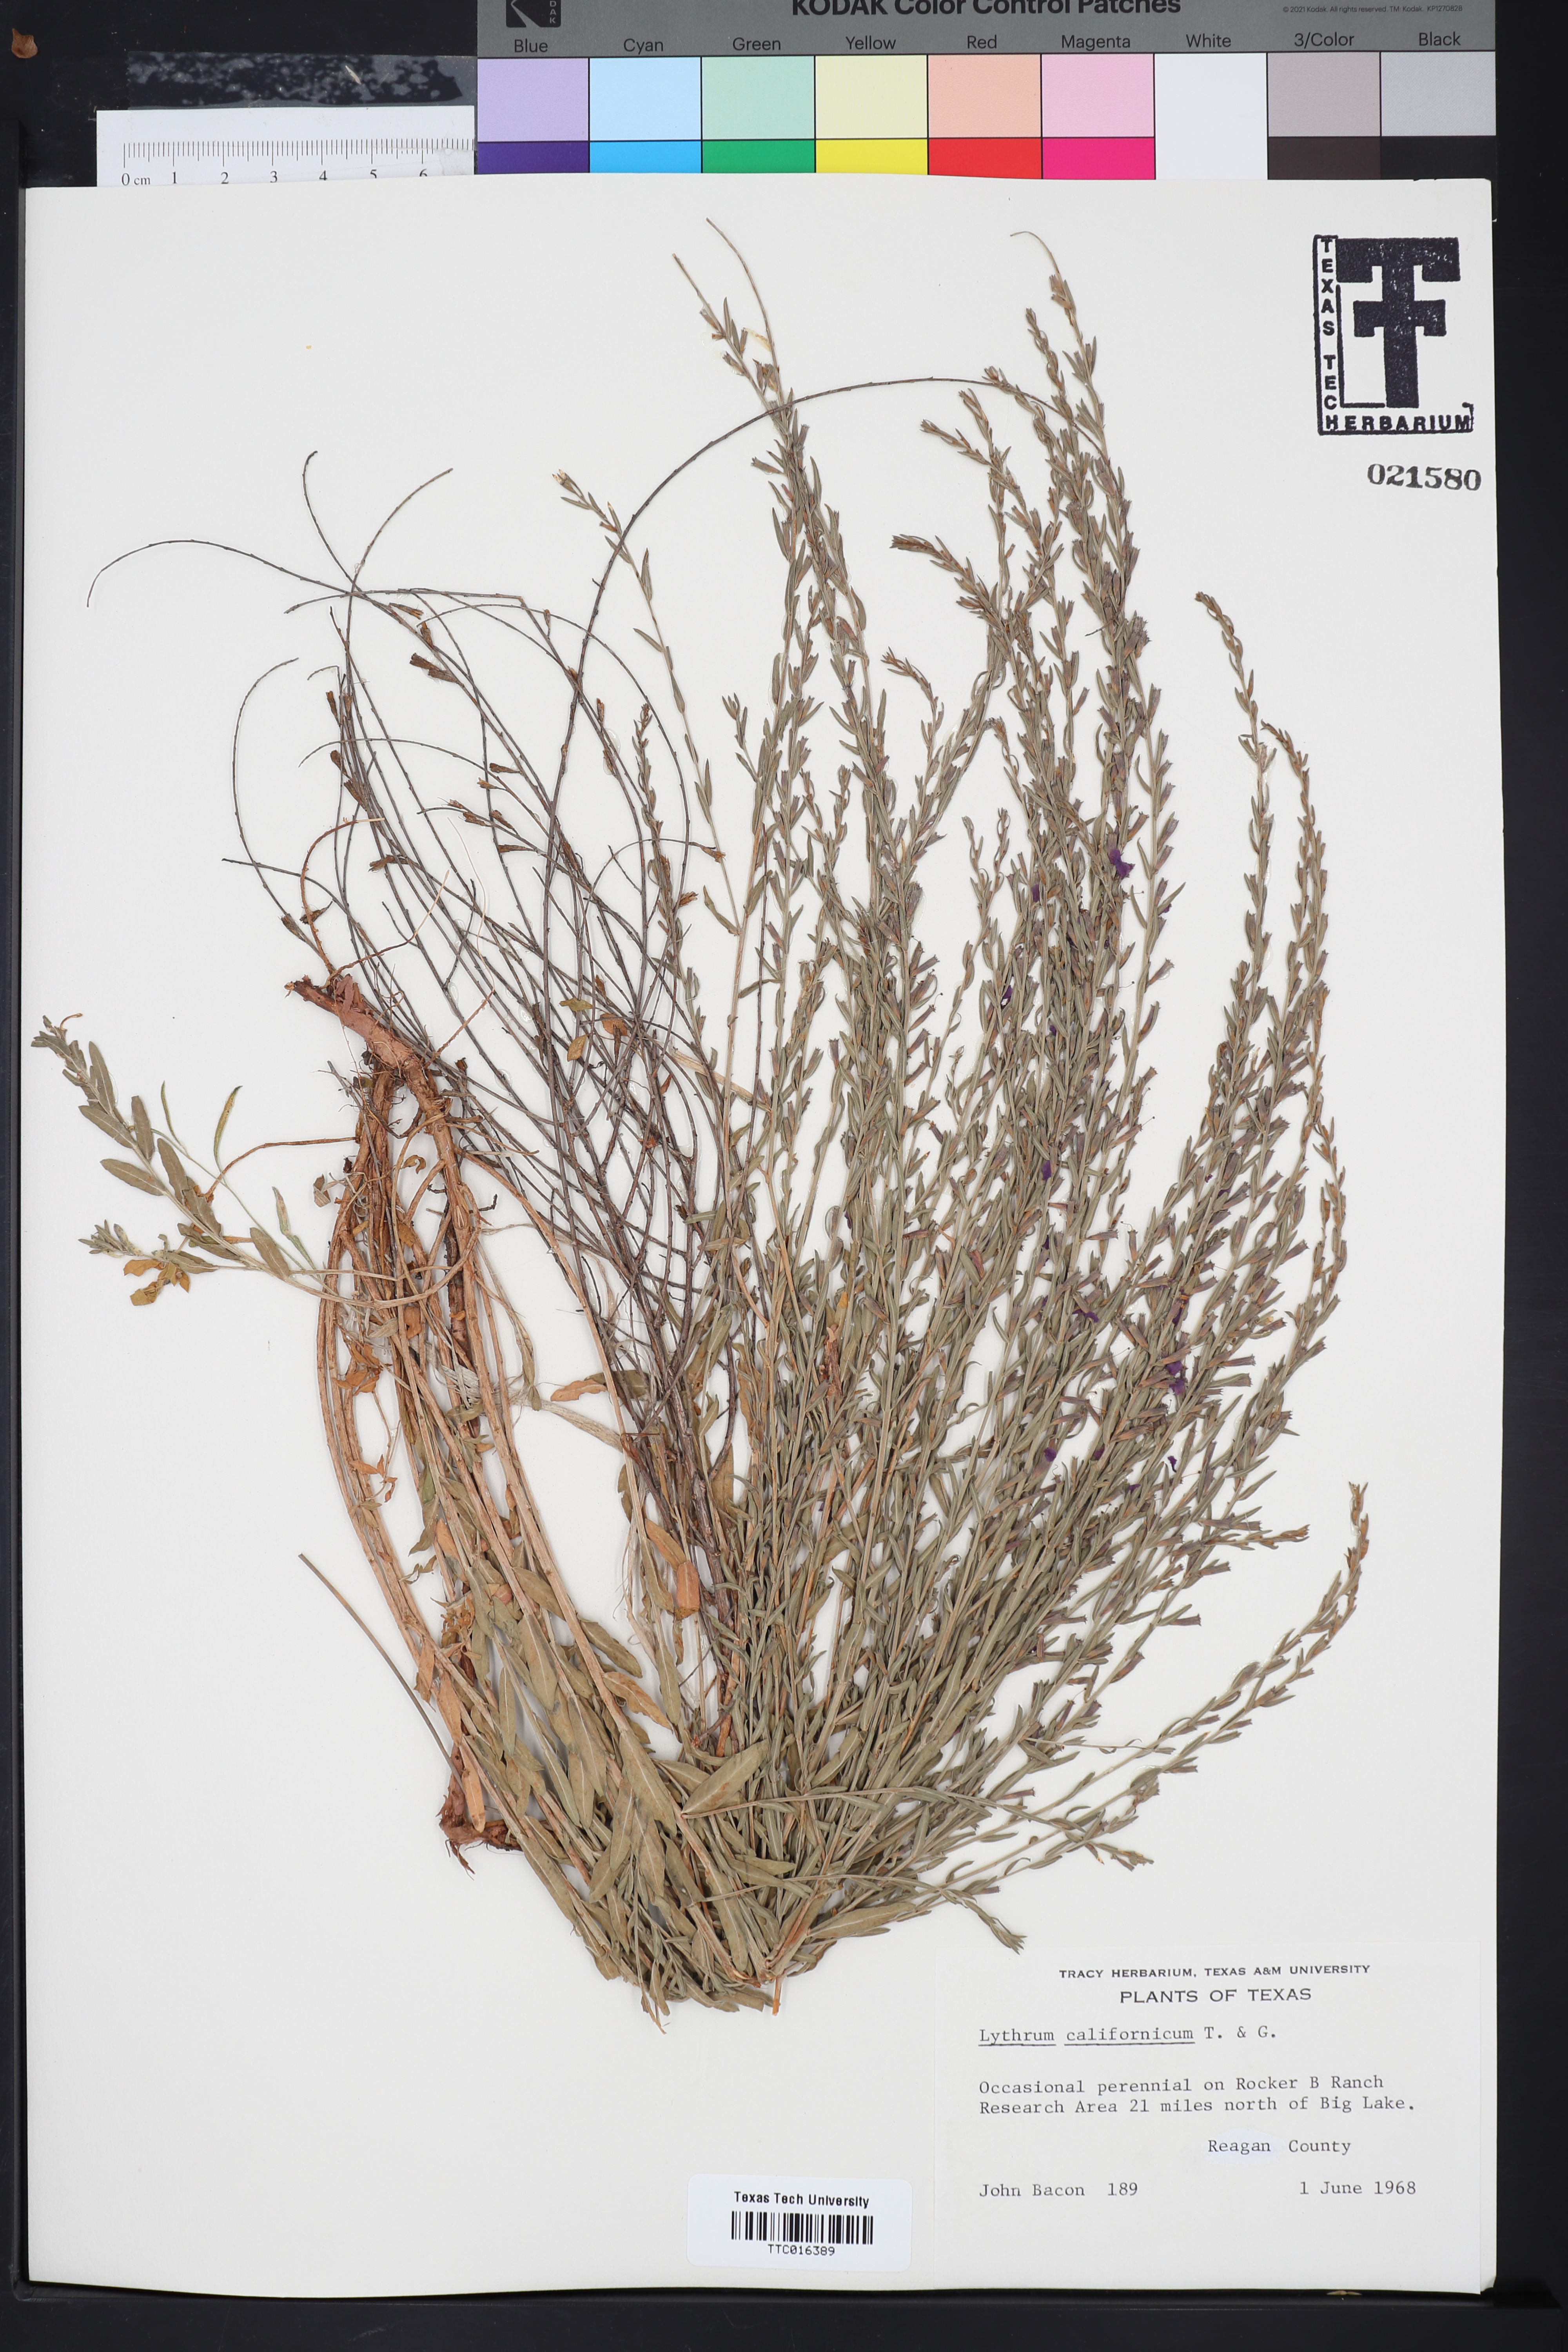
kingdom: Plantae
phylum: Tracheophyta
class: Magnoliopsida
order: Myrtales
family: Lythraceae
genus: Lythrum
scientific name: Lythrum californicum
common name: California loosestrife
